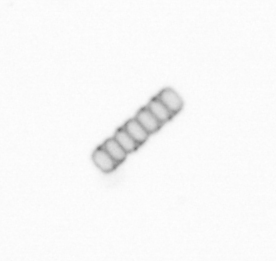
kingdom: Chromista
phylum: Ochrophyta
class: Bacillariophyceae
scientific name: Bacillariophyceae
